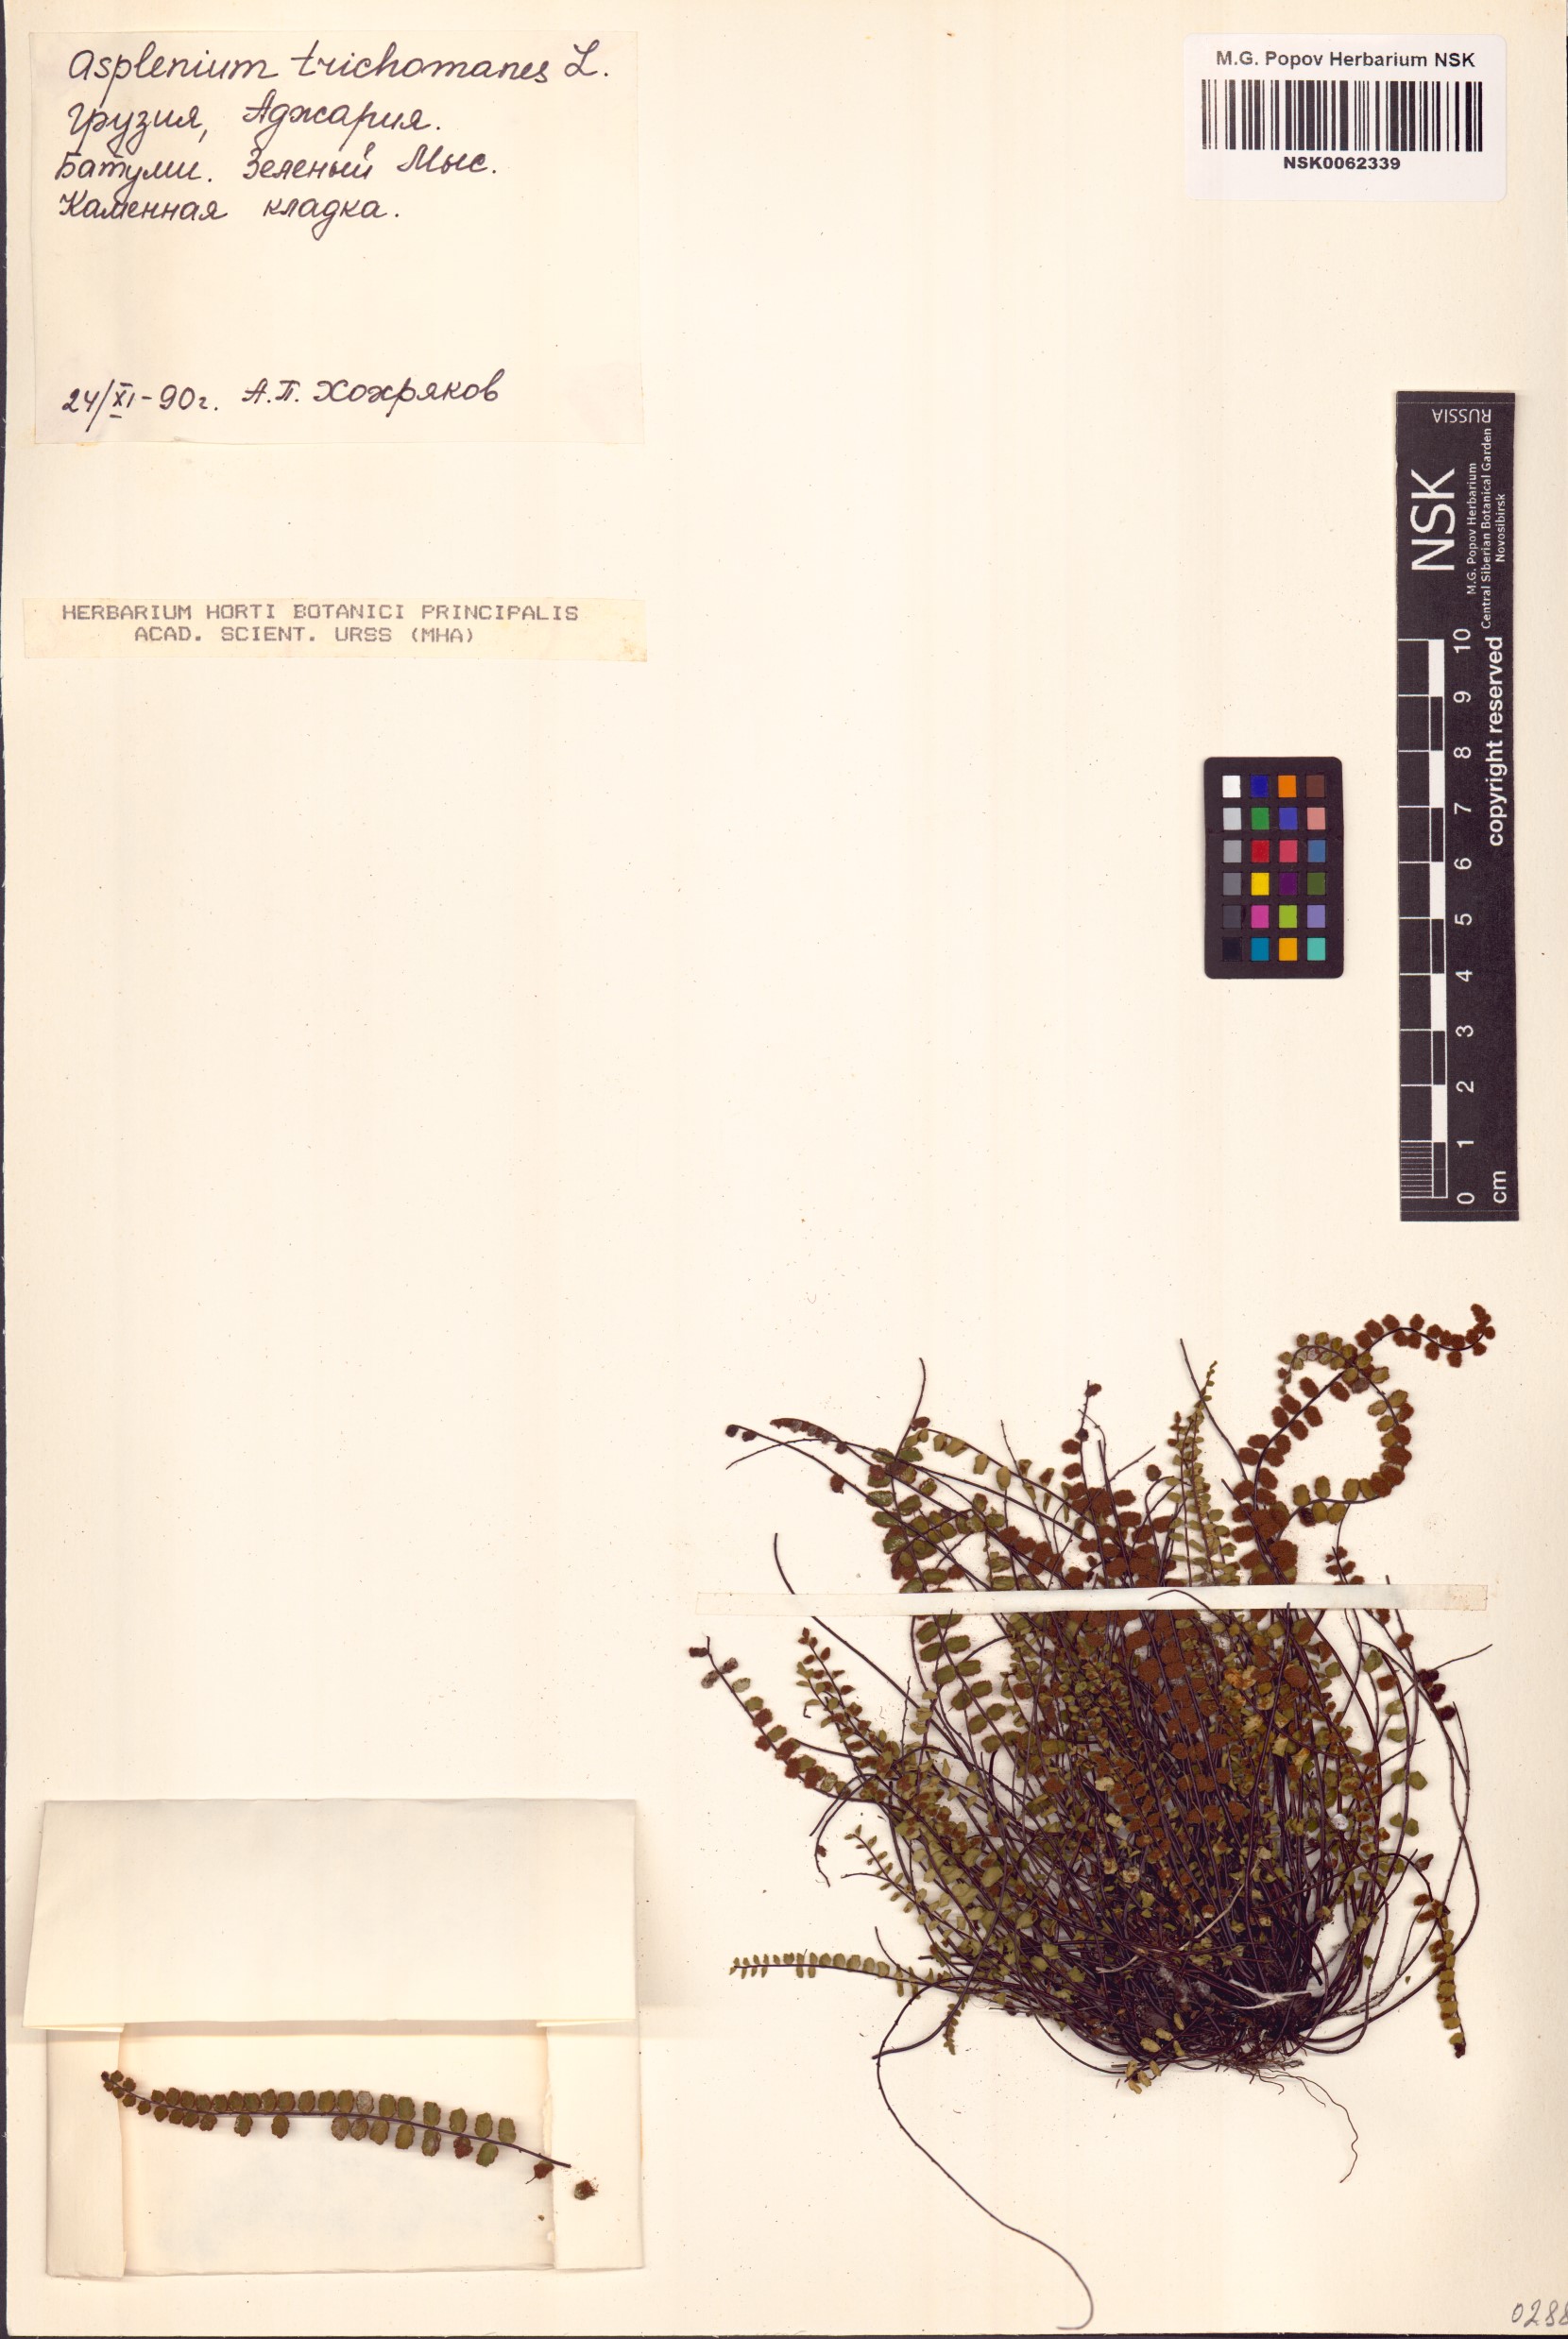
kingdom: Plantae
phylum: Tracheophyta
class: Polypodiopsida
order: Polypodiales
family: Aspleniaceae
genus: Asplenium
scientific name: Asplenium trichomanes
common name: Maidenhair spleenwort
